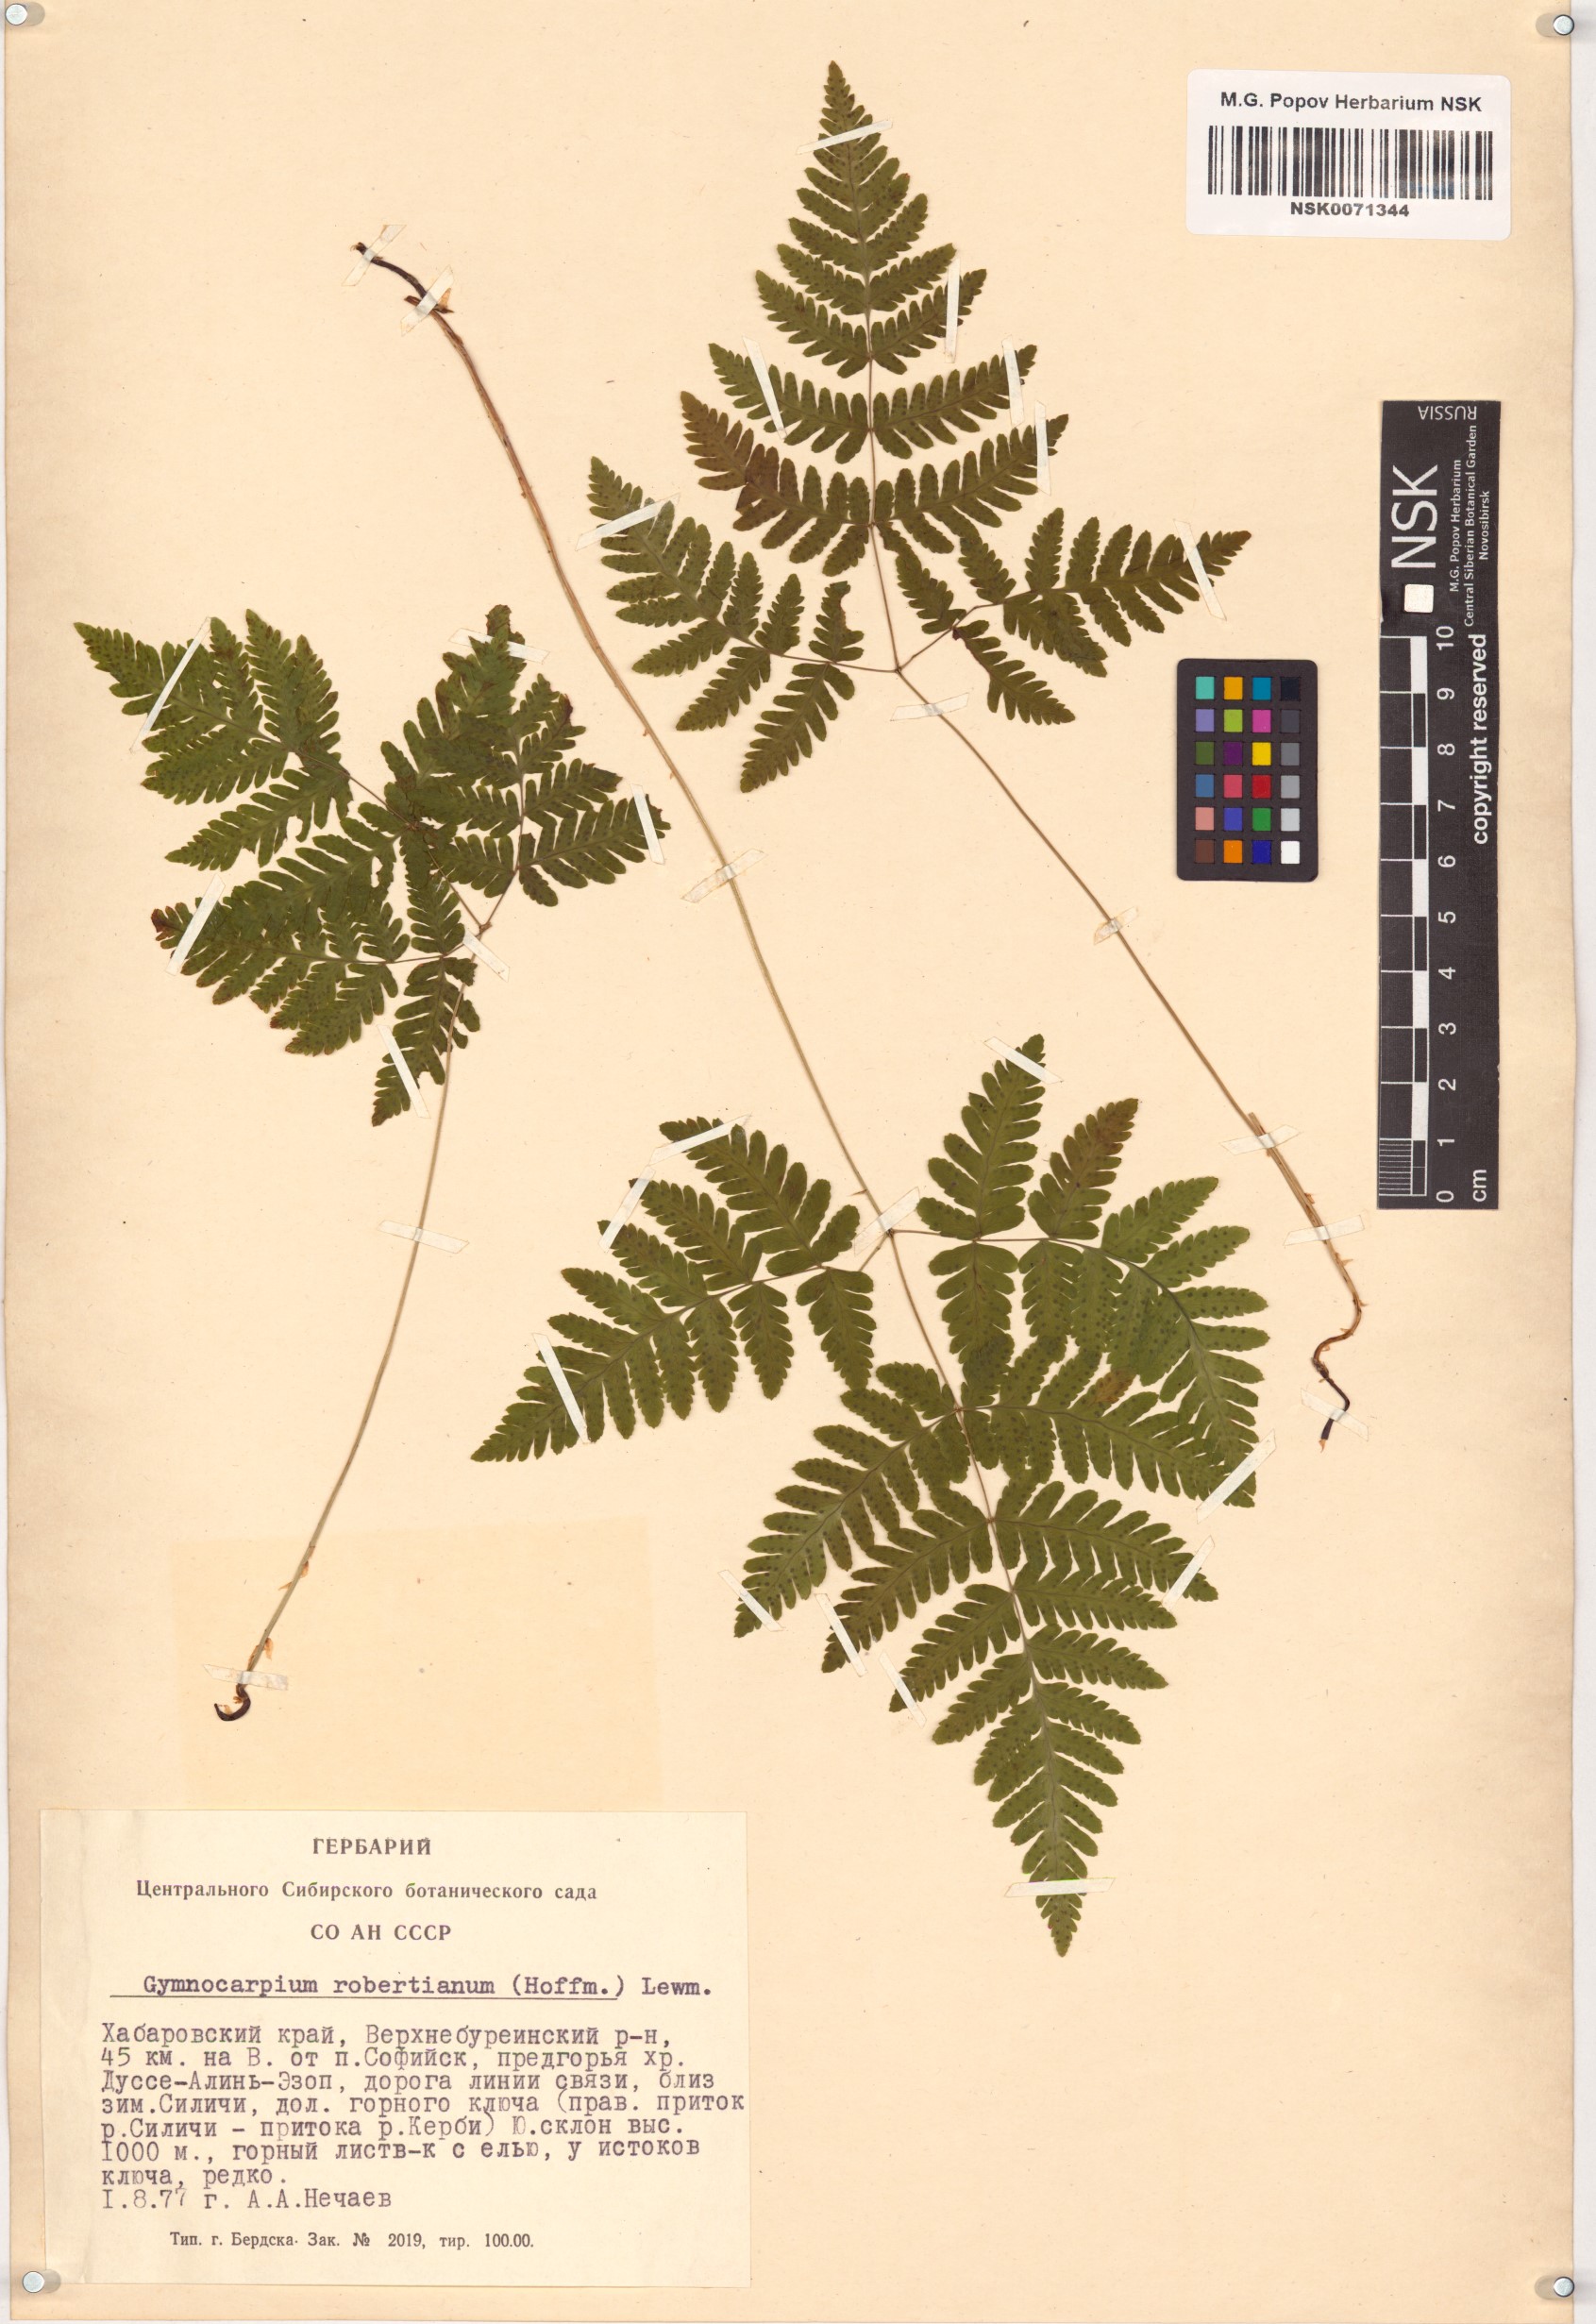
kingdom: Plantae
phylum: Tracheophyta
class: Polypodiopsida
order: Polypodiales
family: Cystopteridaceae
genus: Gymnocarpium
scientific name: Gymnocarpium robertianum
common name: Limestone fern
